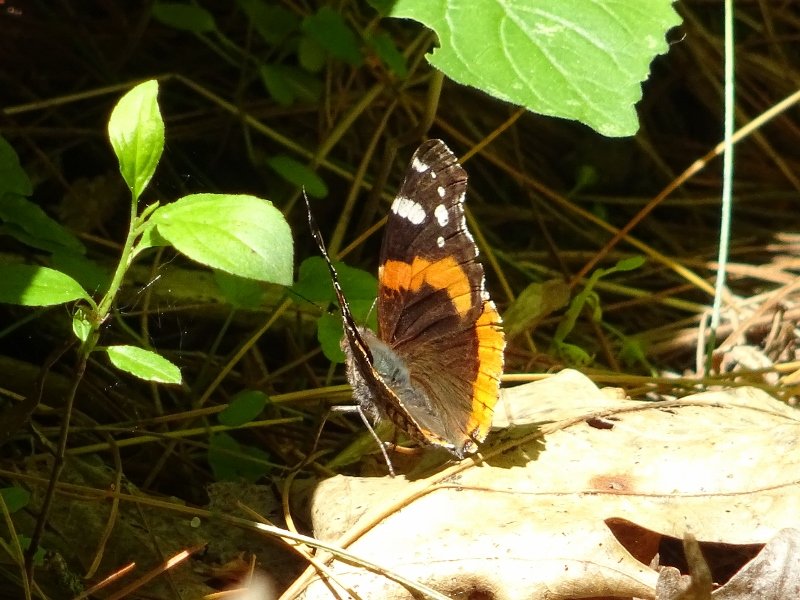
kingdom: Animalia
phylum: Arthropoda
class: Insecta
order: Lepidoptera
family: Nymphalidae
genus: Vanessa
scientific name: Vanessa atalanta
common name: Red Admiral
